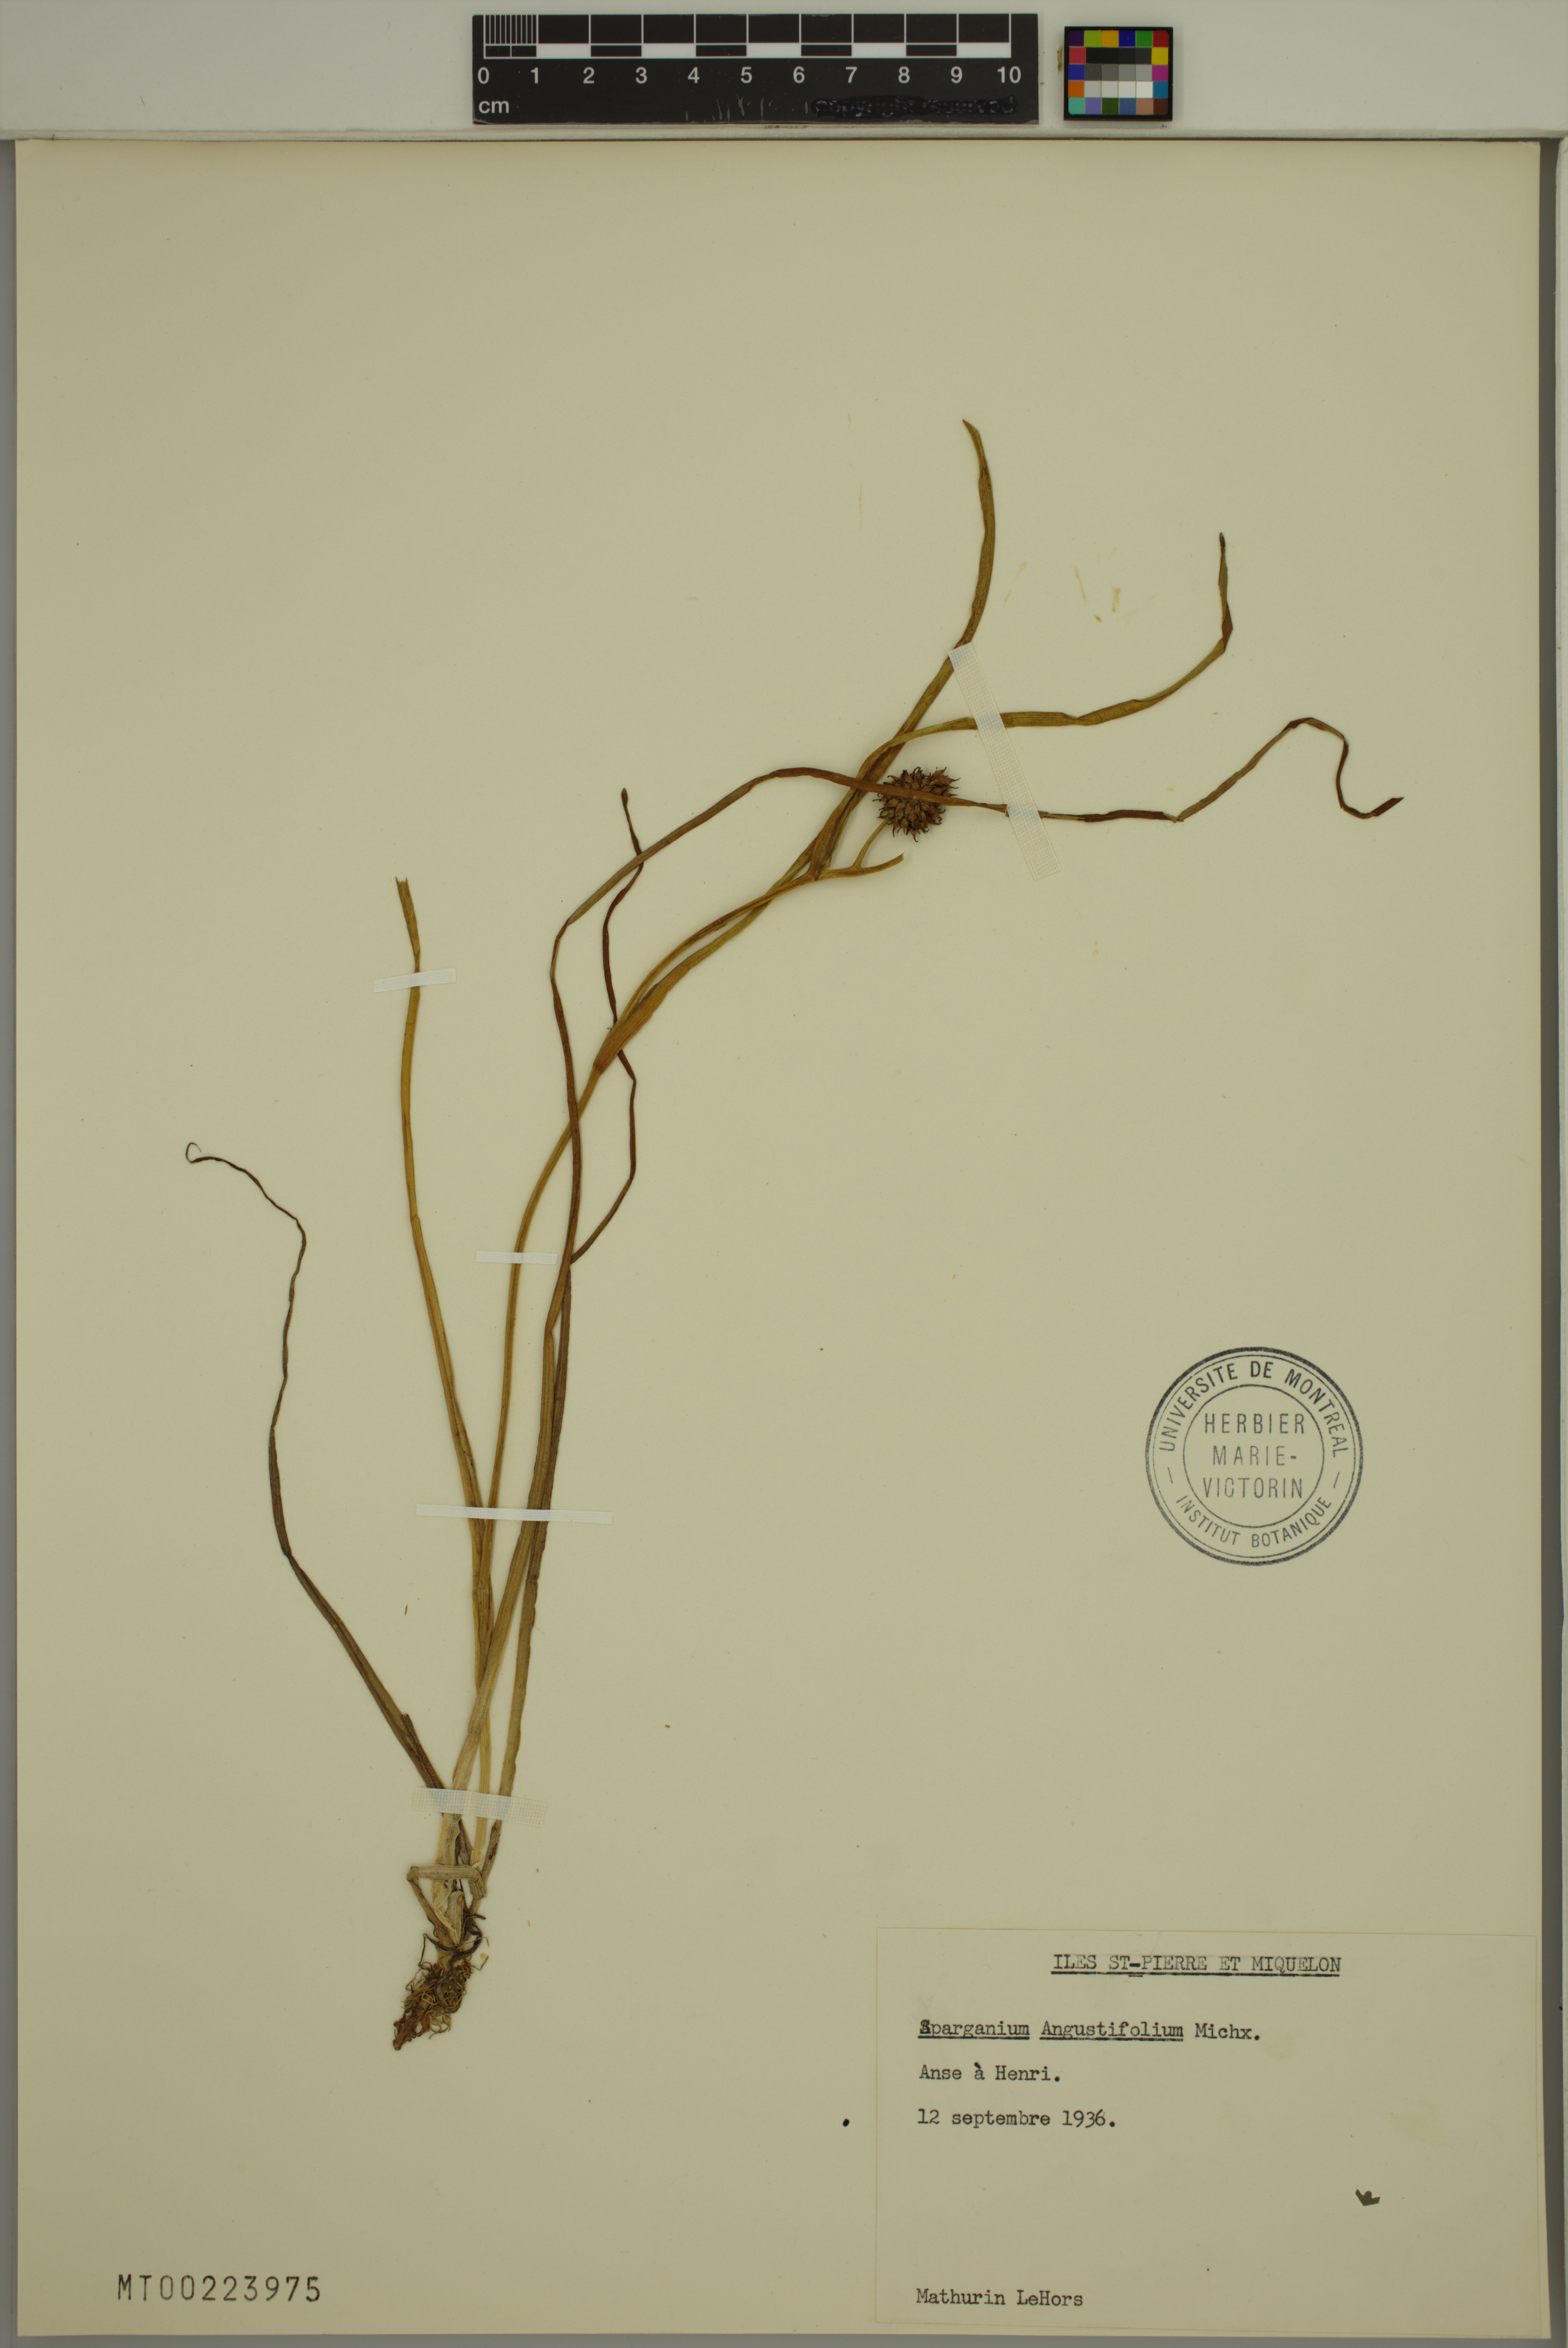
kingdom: Plantae
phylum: Tracheophyta
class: Liliopsida
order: Poales
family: Typhaceae
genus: Sparganium
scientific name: Sparganium angustifolium
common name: Floating bur-reed
